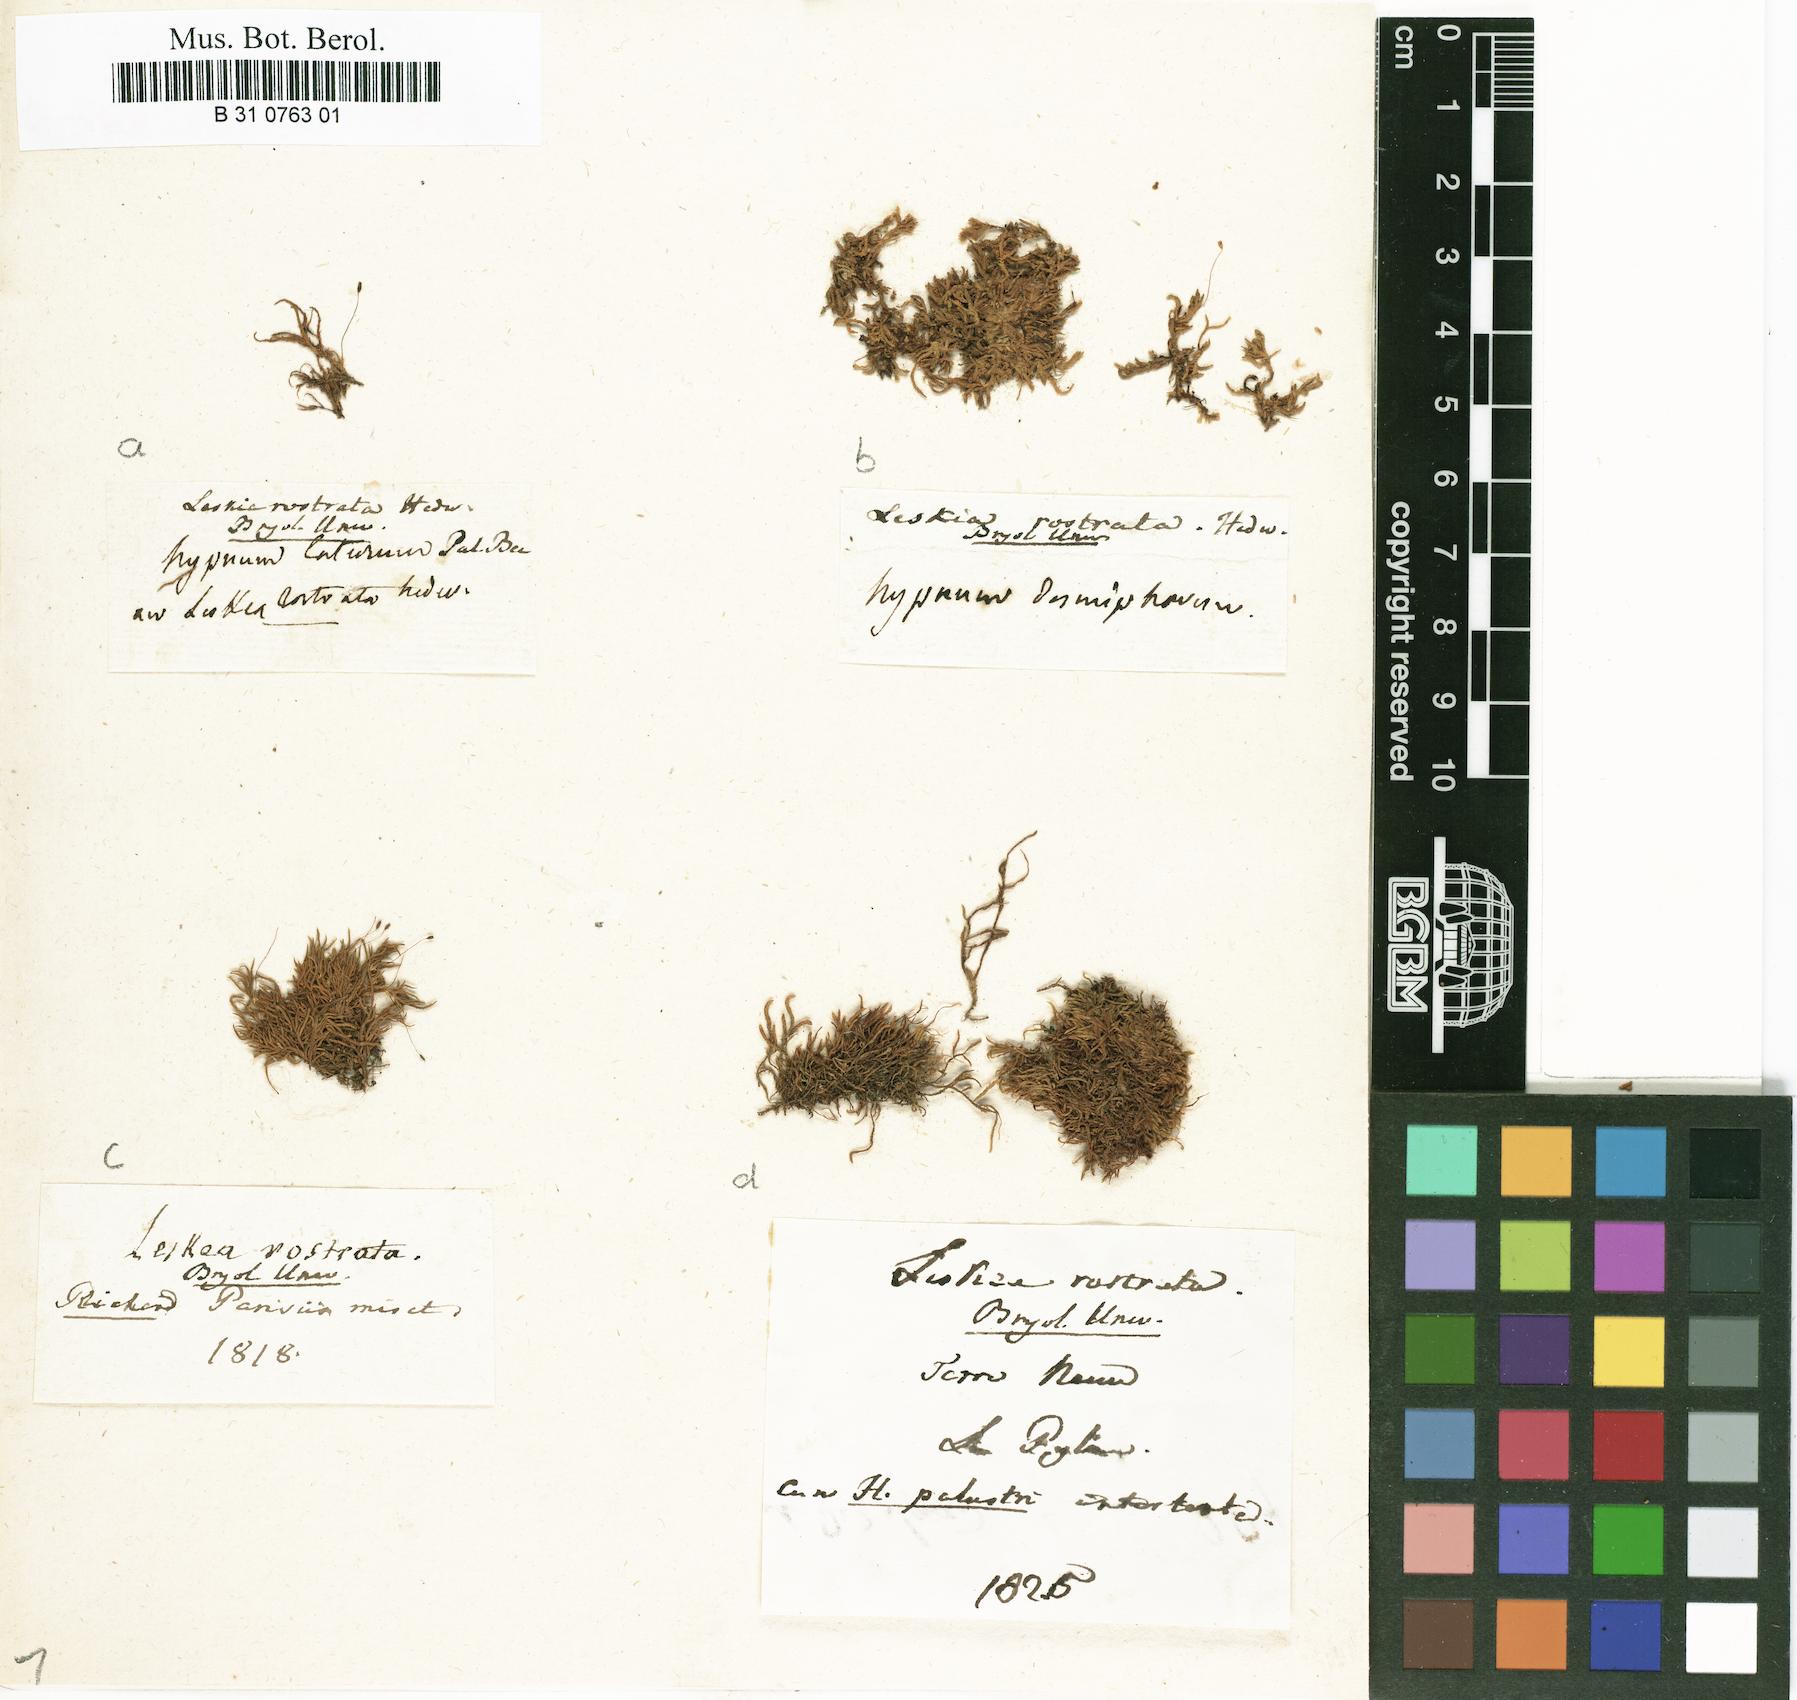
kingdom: Plantae
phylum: Bryophyta
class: Bryopsida
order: Hypnales
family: Brachytheciaceae
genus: Claopodium
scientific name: Claopodium rostratum
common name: Yellow yarn moss
